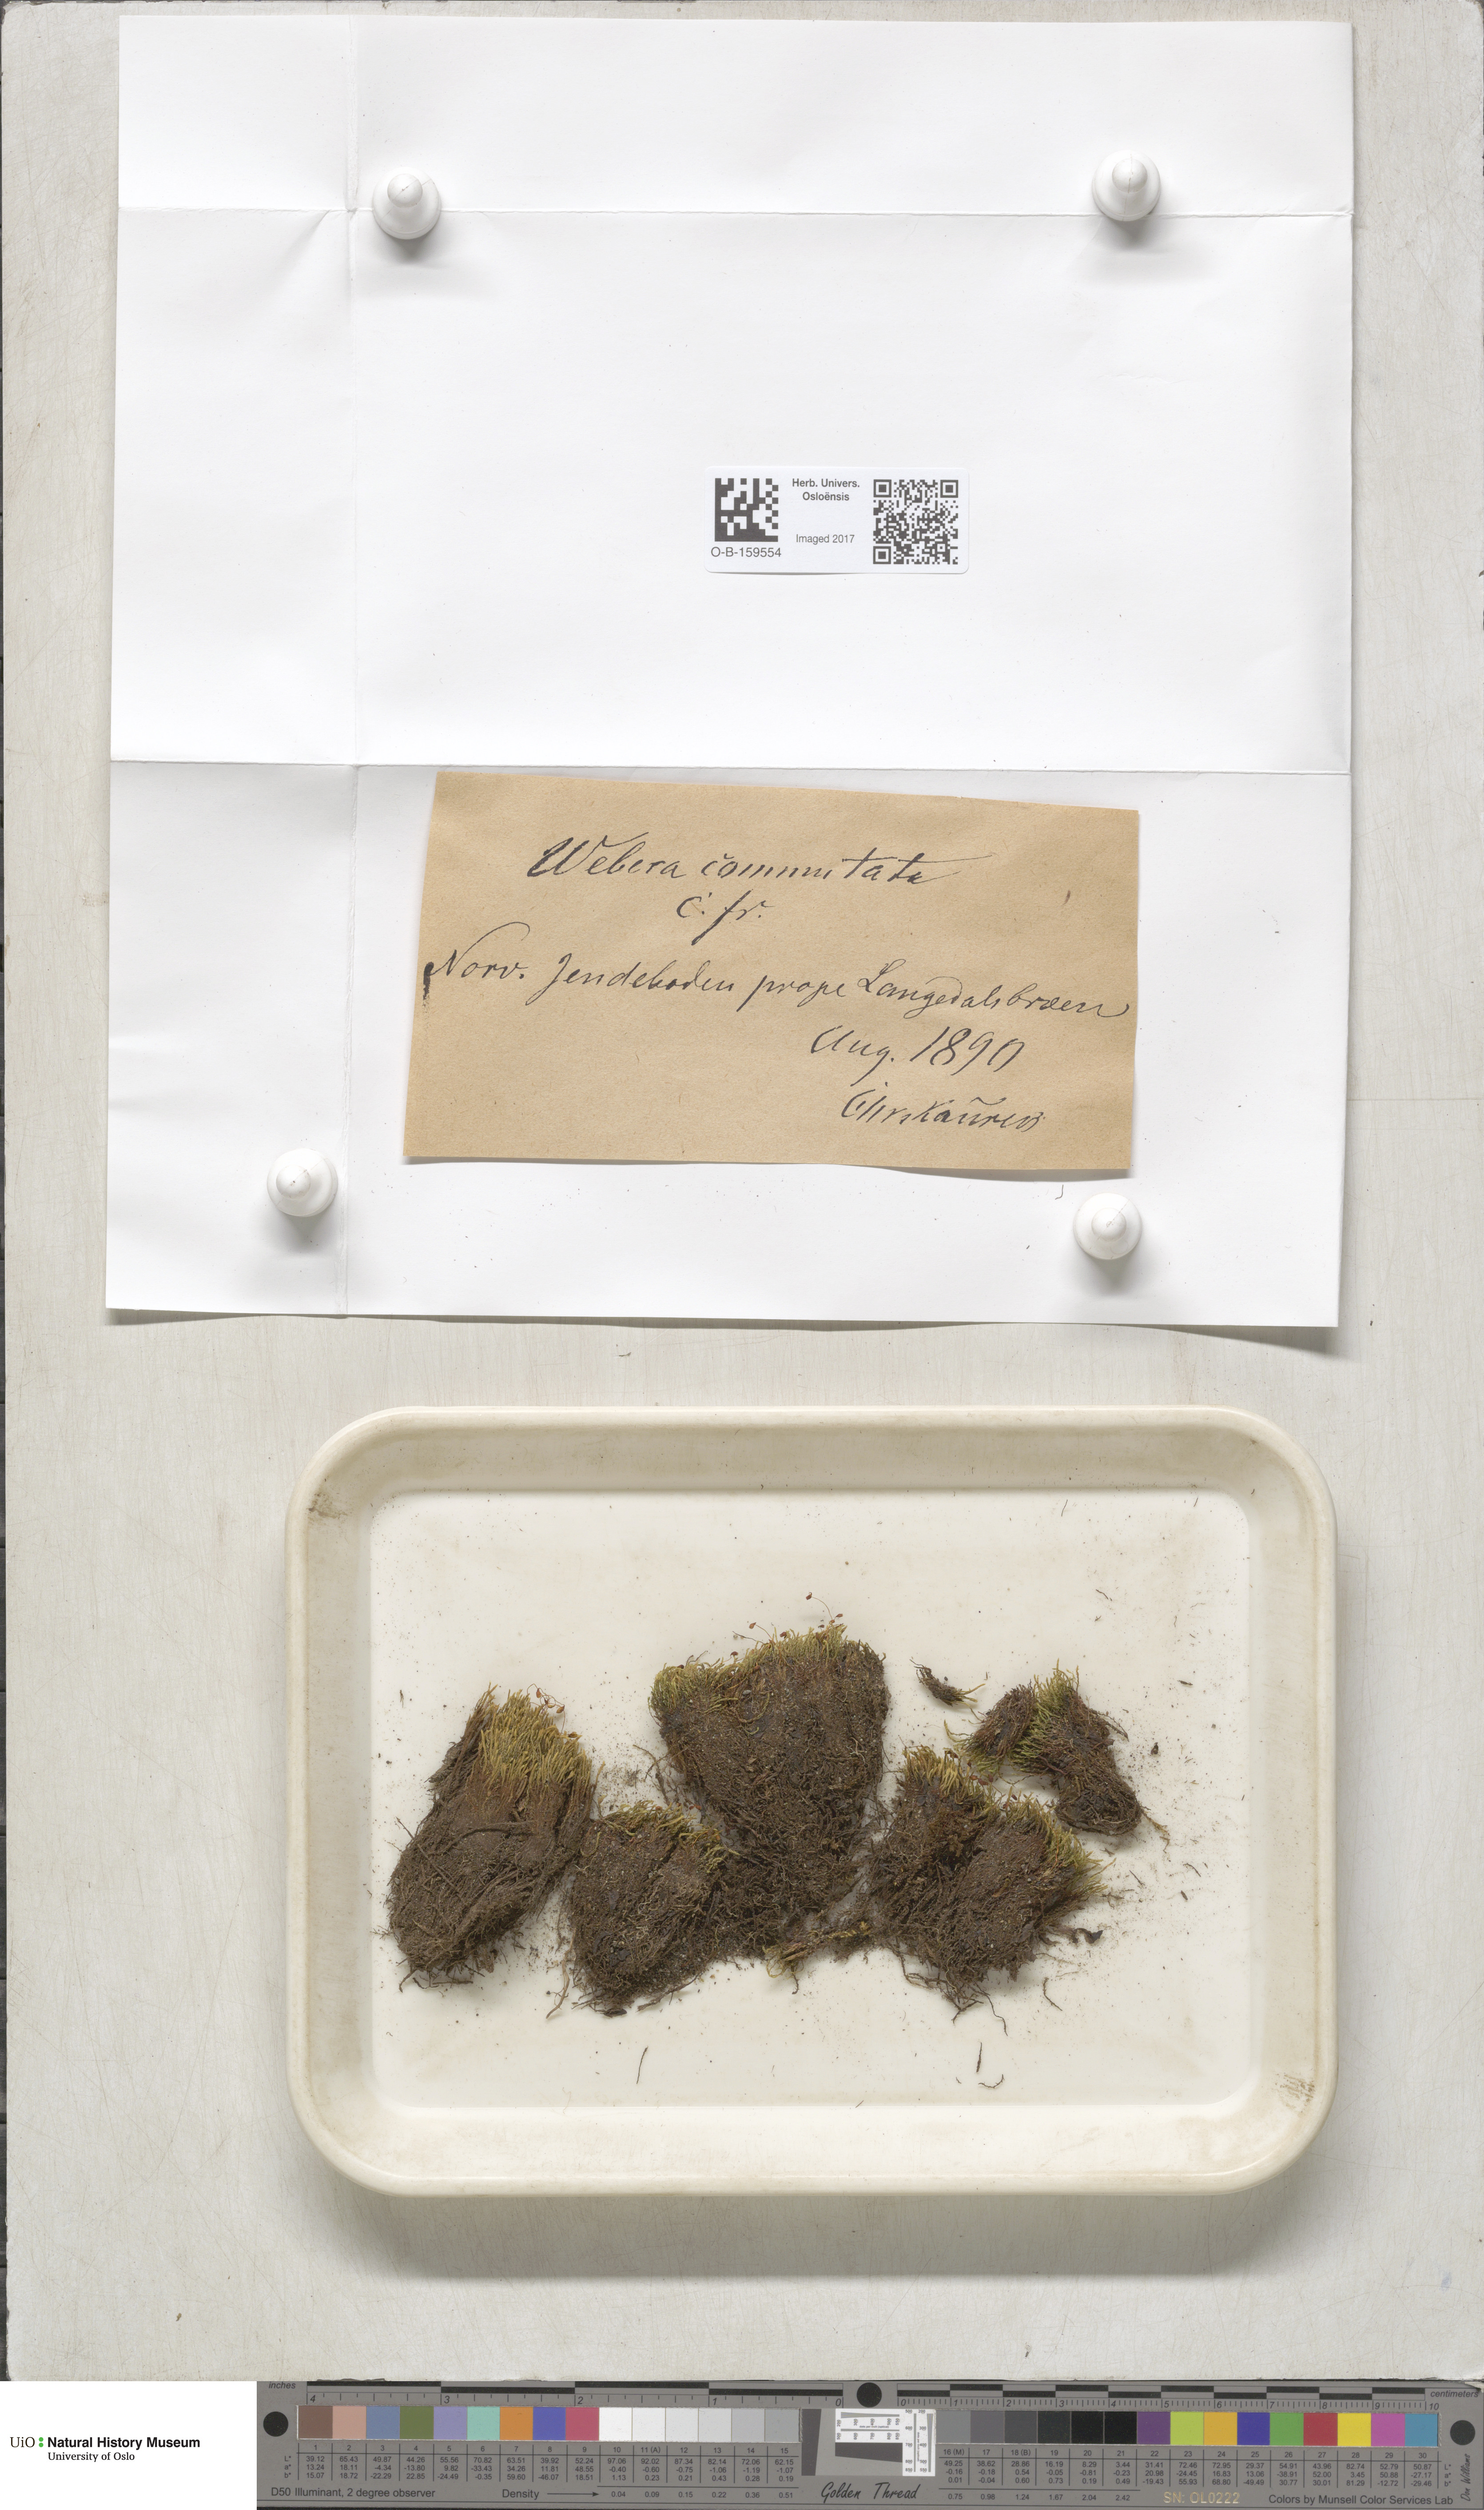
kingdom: Plantae
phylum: Bryophyta
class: Bryopsida
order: Bryales
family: Mniaceae
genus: Pohlia
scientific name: Pohlia drummondii
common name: Drummond's nodding moss
